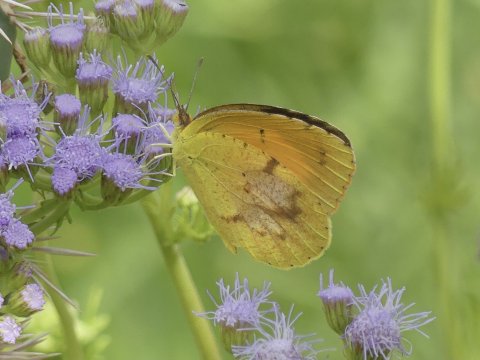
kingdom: Animalia
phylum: Arthropoda
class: Insecta
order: Lepidoptera
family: Pieridae
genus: Abaeis
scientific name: Abaeis nicippe
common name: Sleepy Orange
